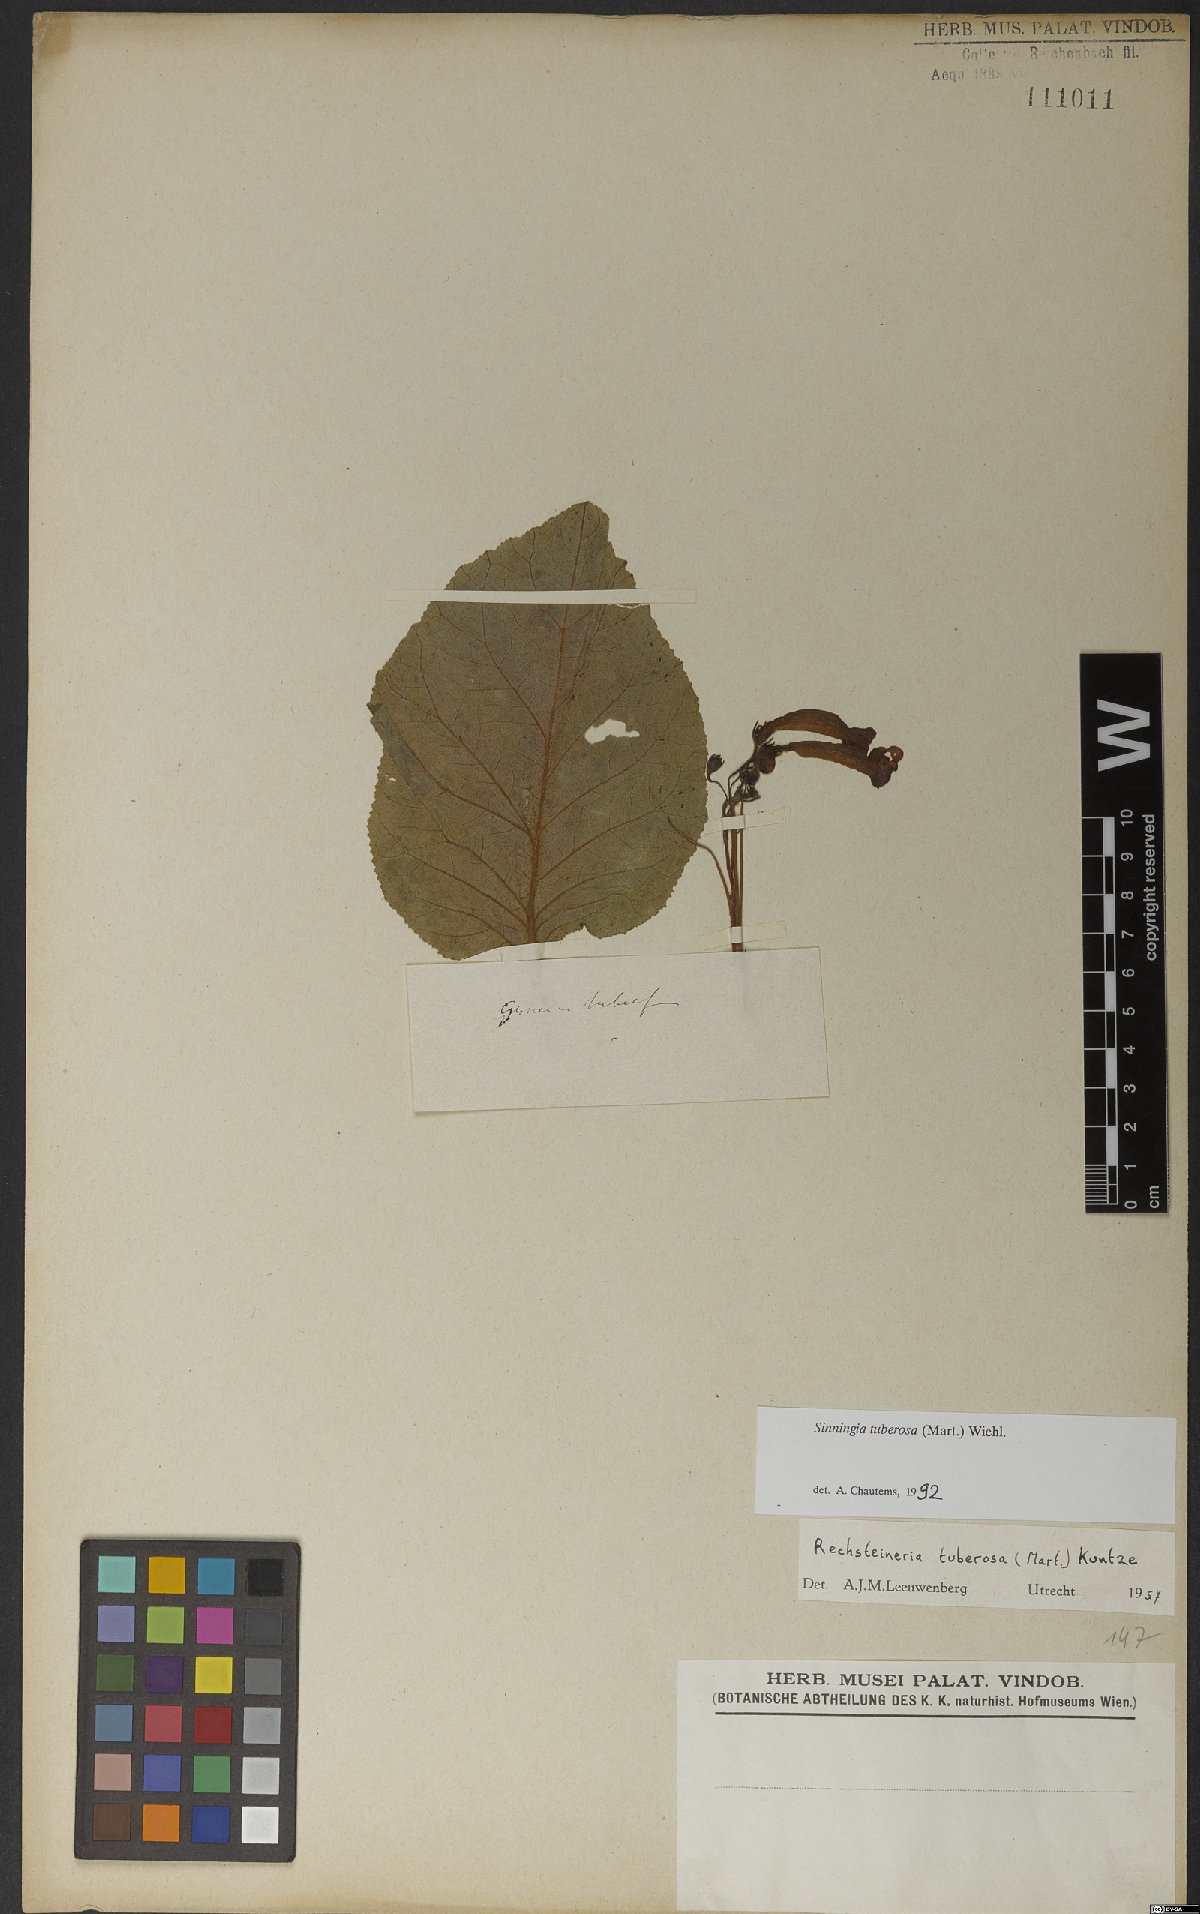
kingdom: Plantae
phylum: Tracheophyta
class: Magnoliopsida
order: Lamiales
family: Gesneriaceae
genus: Sinningia
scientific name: Sinningia tuberosa
